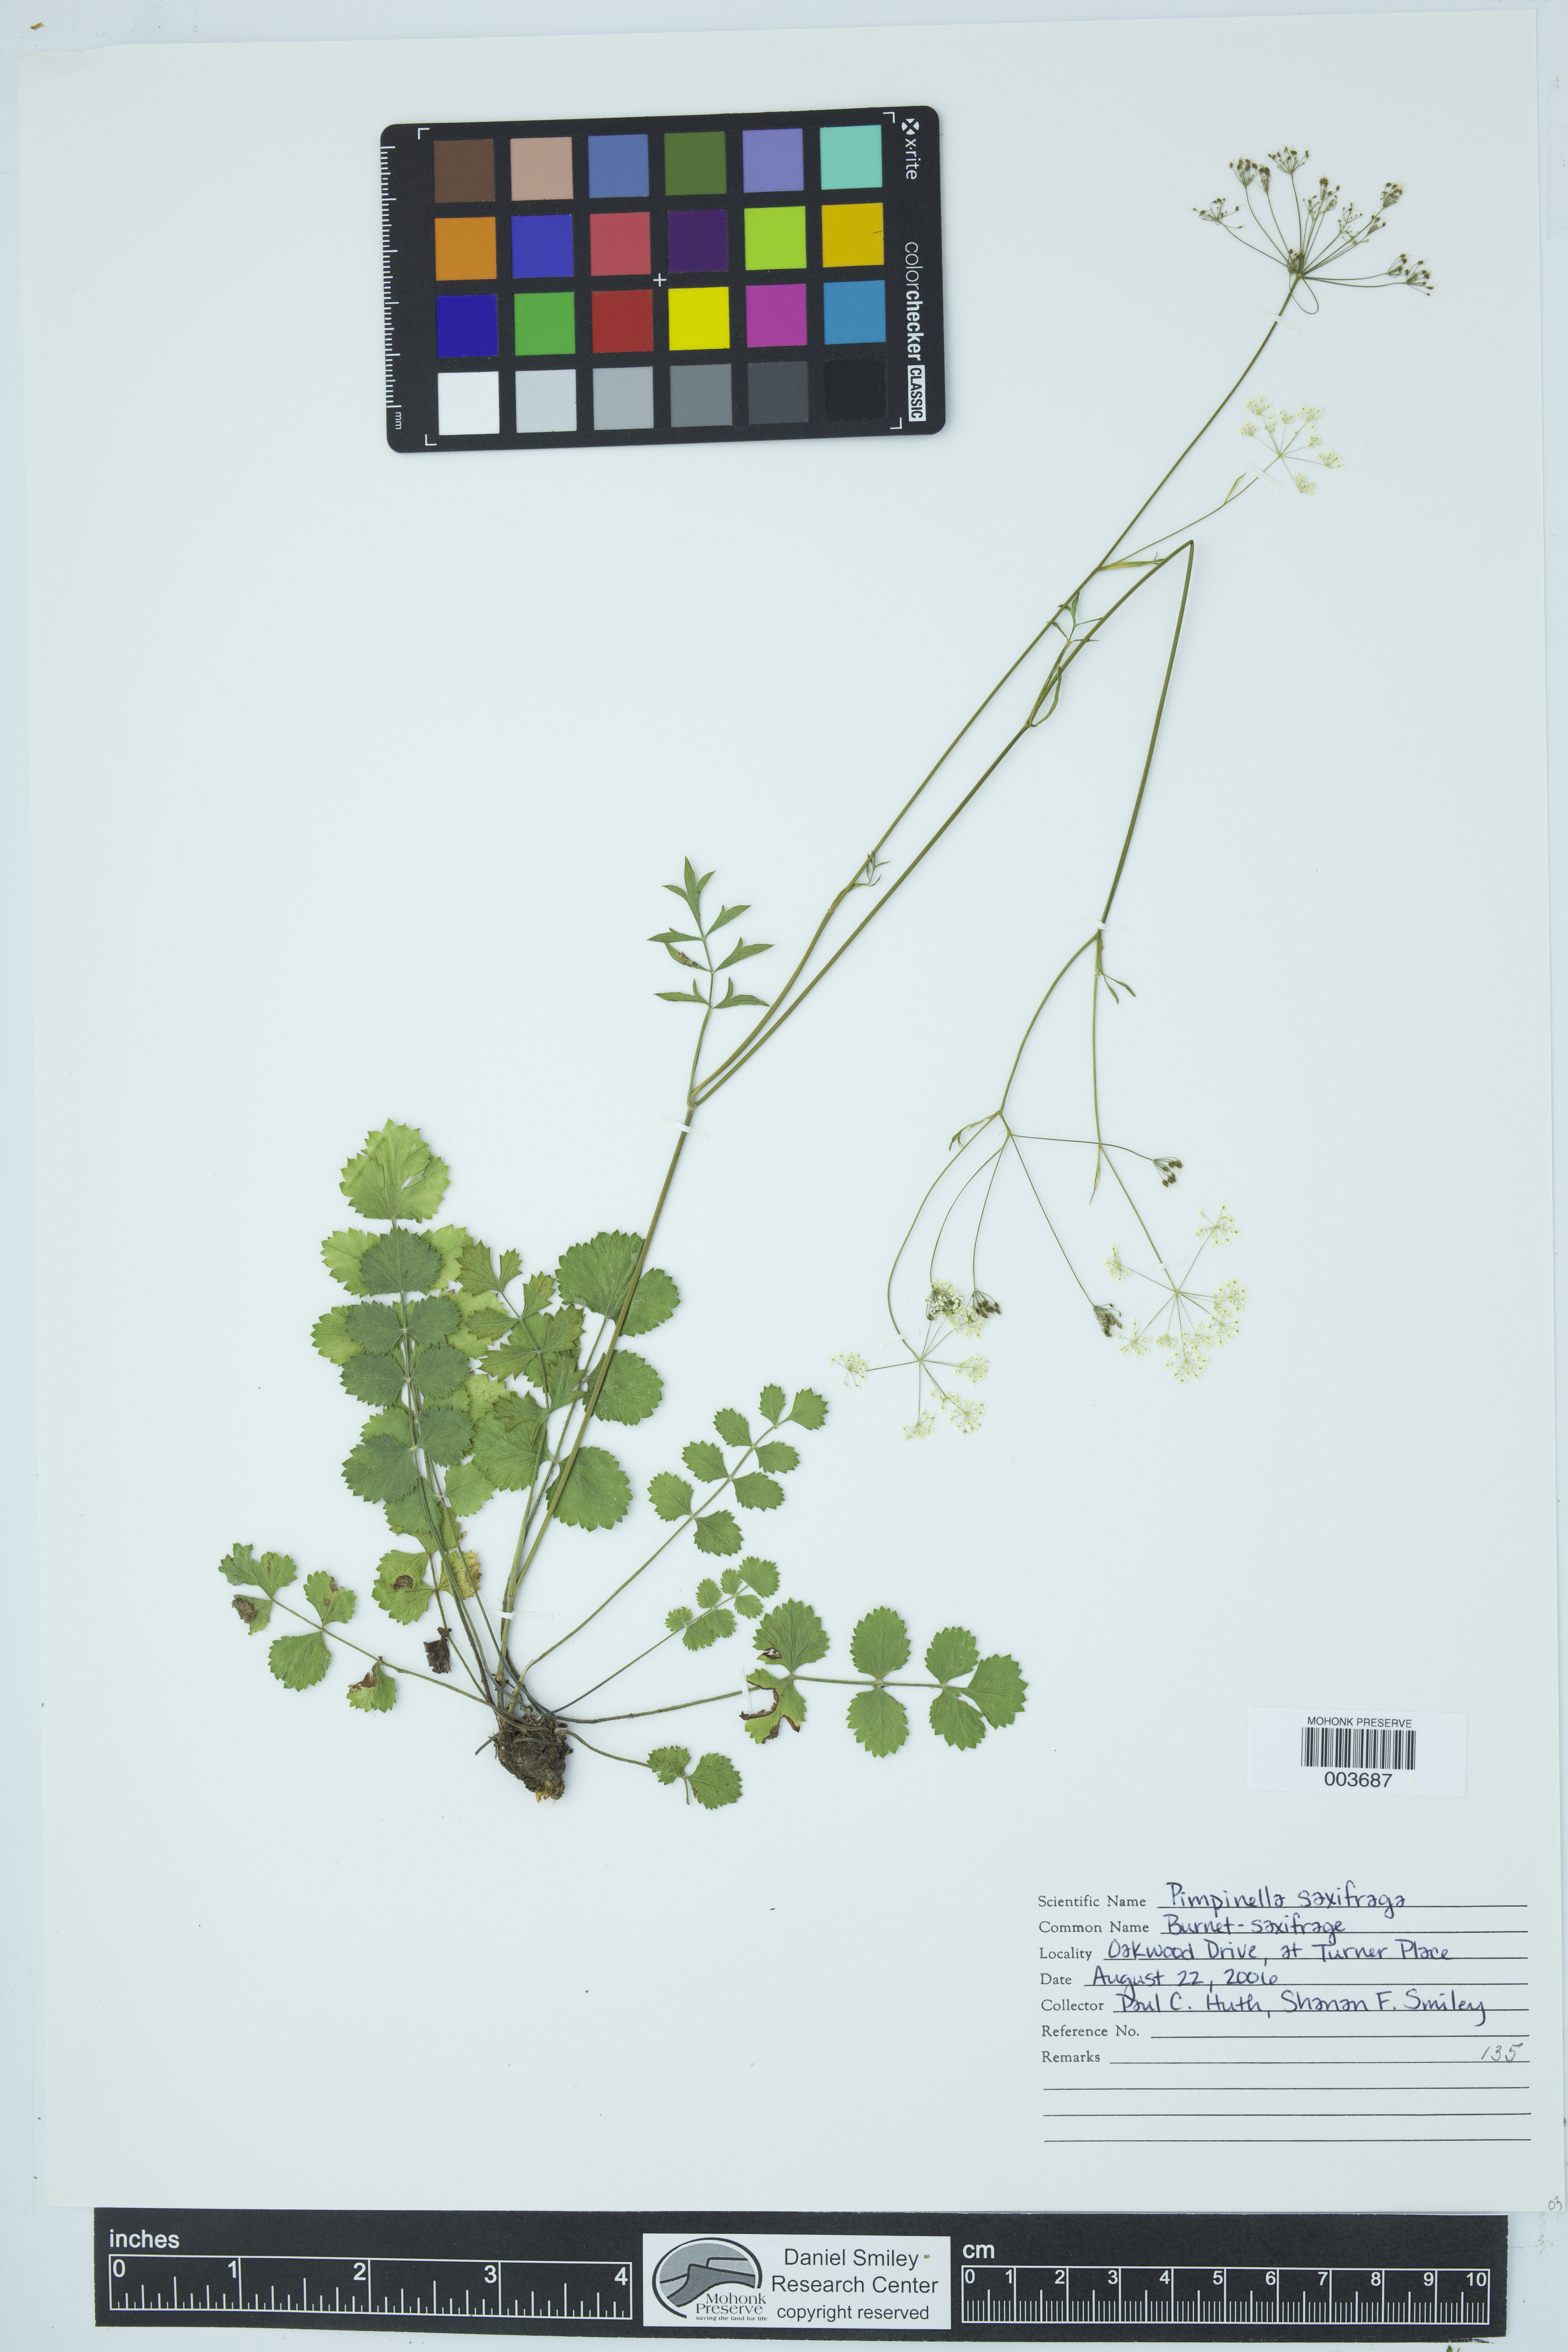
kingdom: Plantae
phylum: Tracheophyta
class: Magnoliopsida
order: Apiales
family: Apiaceae
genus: Pimpinella
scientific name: Pimpinella saxifraga
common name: Burnet-saxifrage
